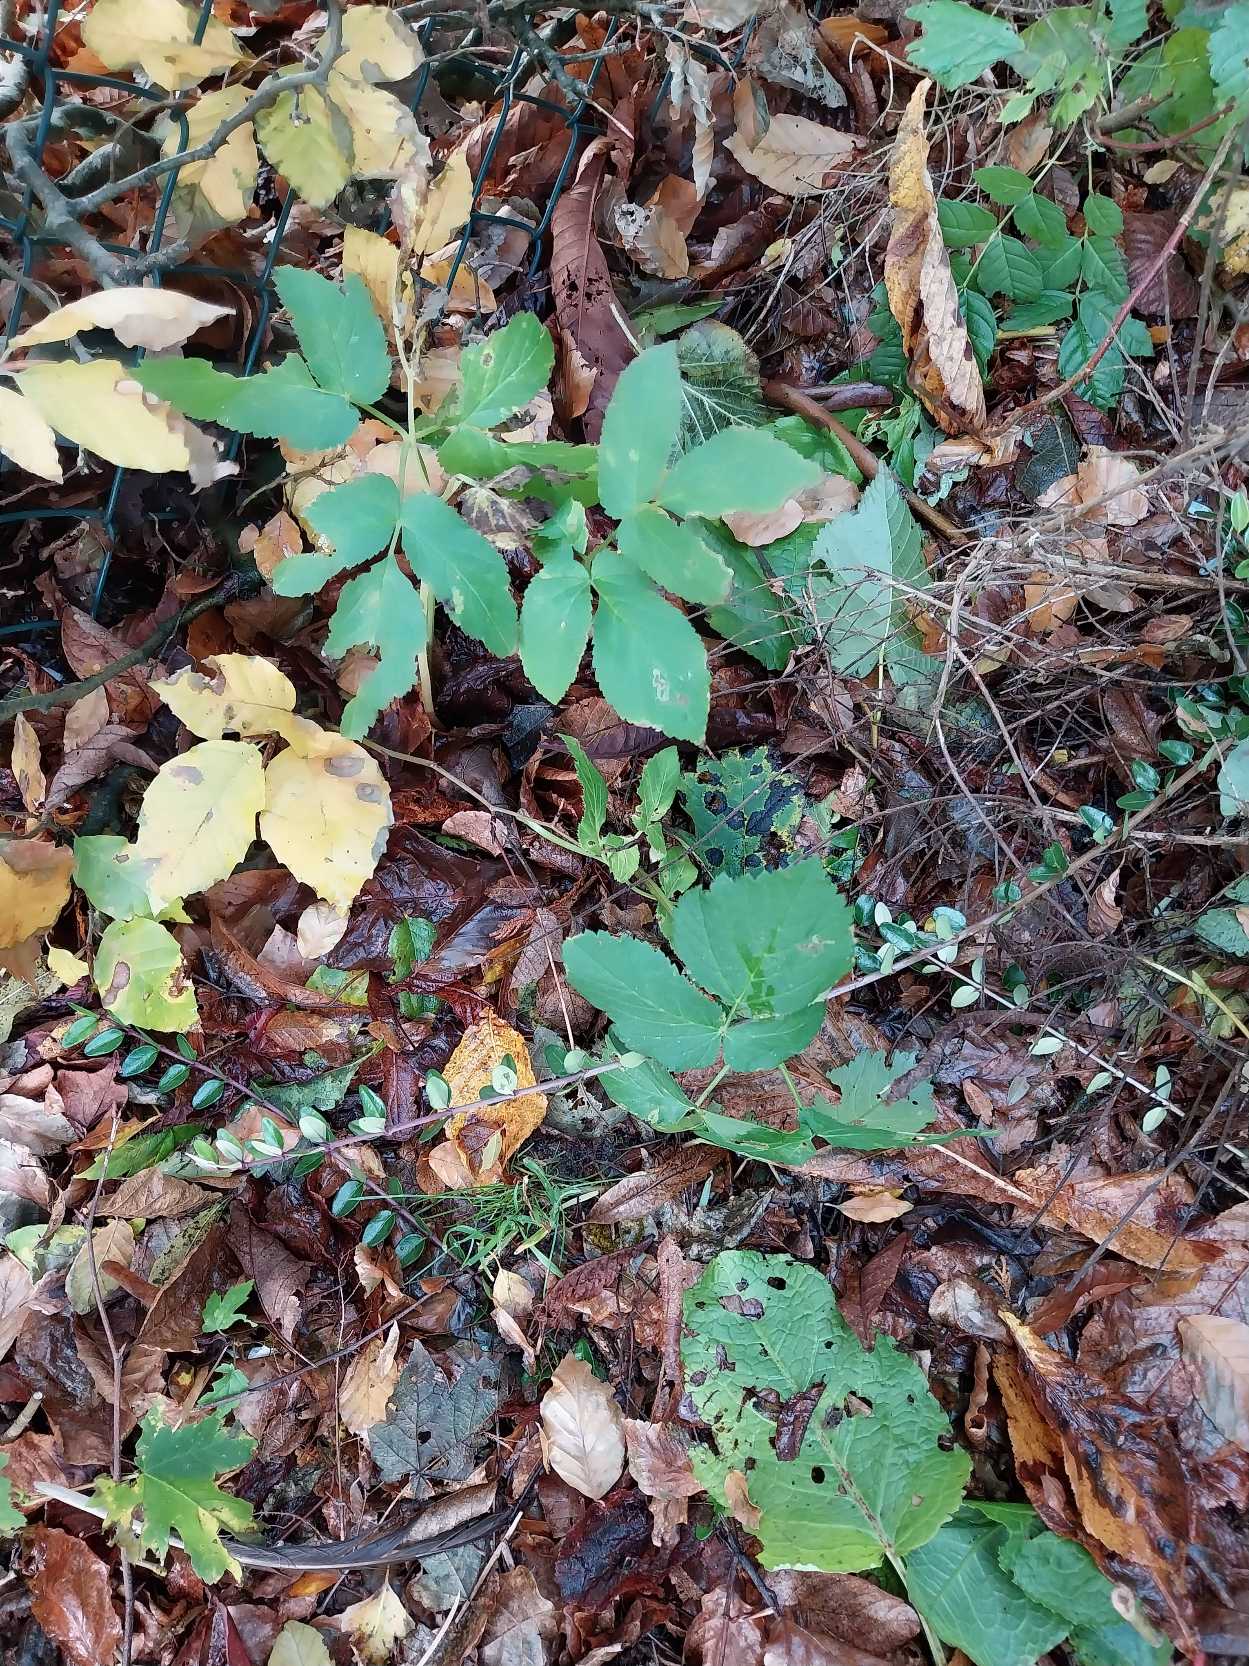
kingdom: Plantae
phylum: Tracheophyta
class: Magnoliopsida
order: Apiales
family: Apiaceae
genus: Aegopodium
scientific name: Aegopodium podagraria
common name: Skvalderkål
